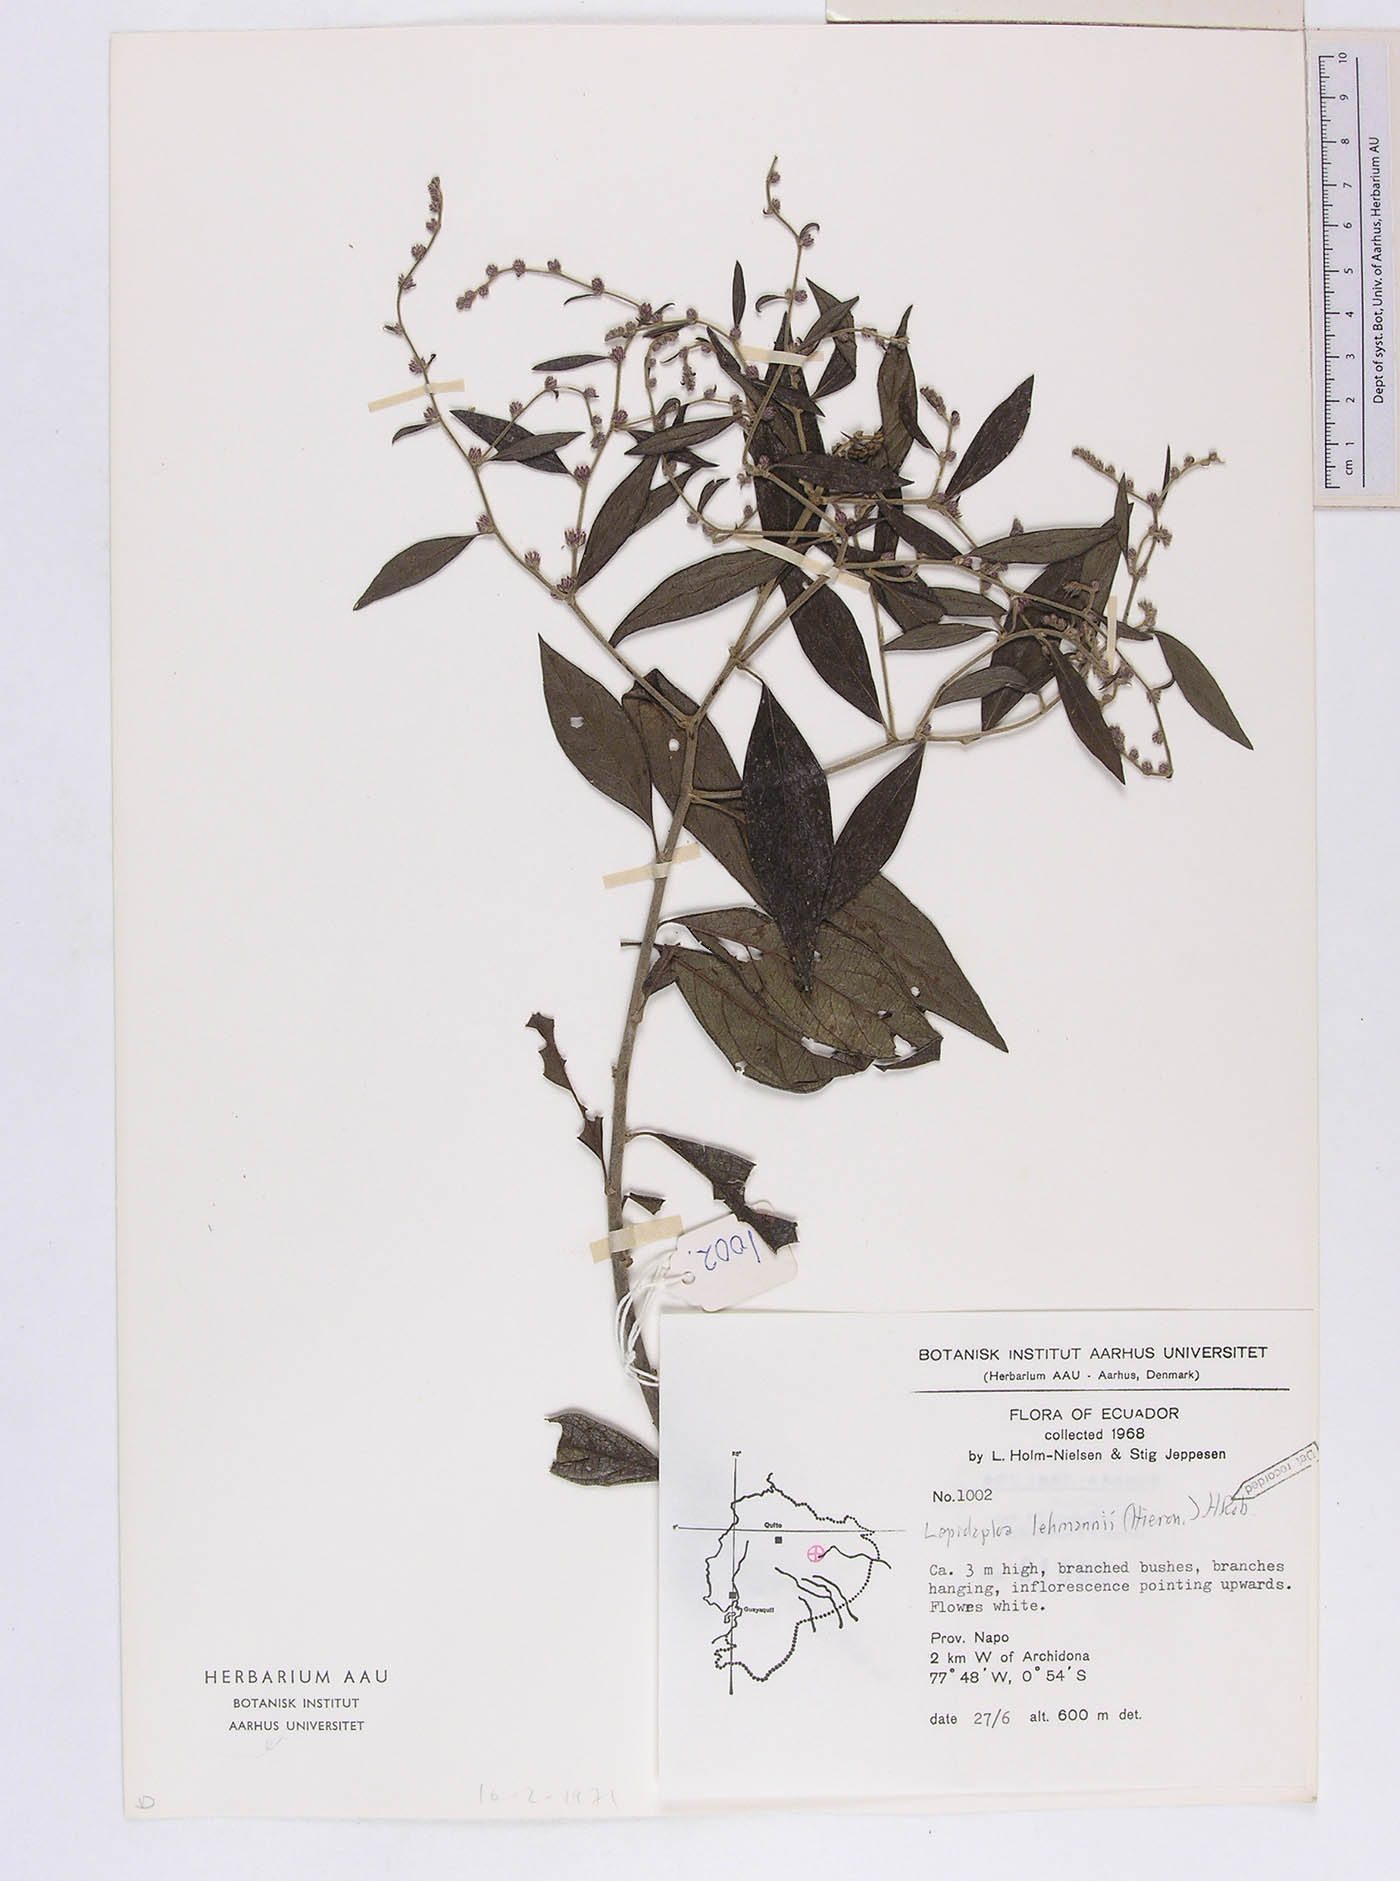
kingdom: Plantae
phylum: Tracheophyta
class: Magnoliopsida
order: Asterales
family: Asteraceae
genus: Lepidaploa
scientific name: Lepidaploa lehmannii
